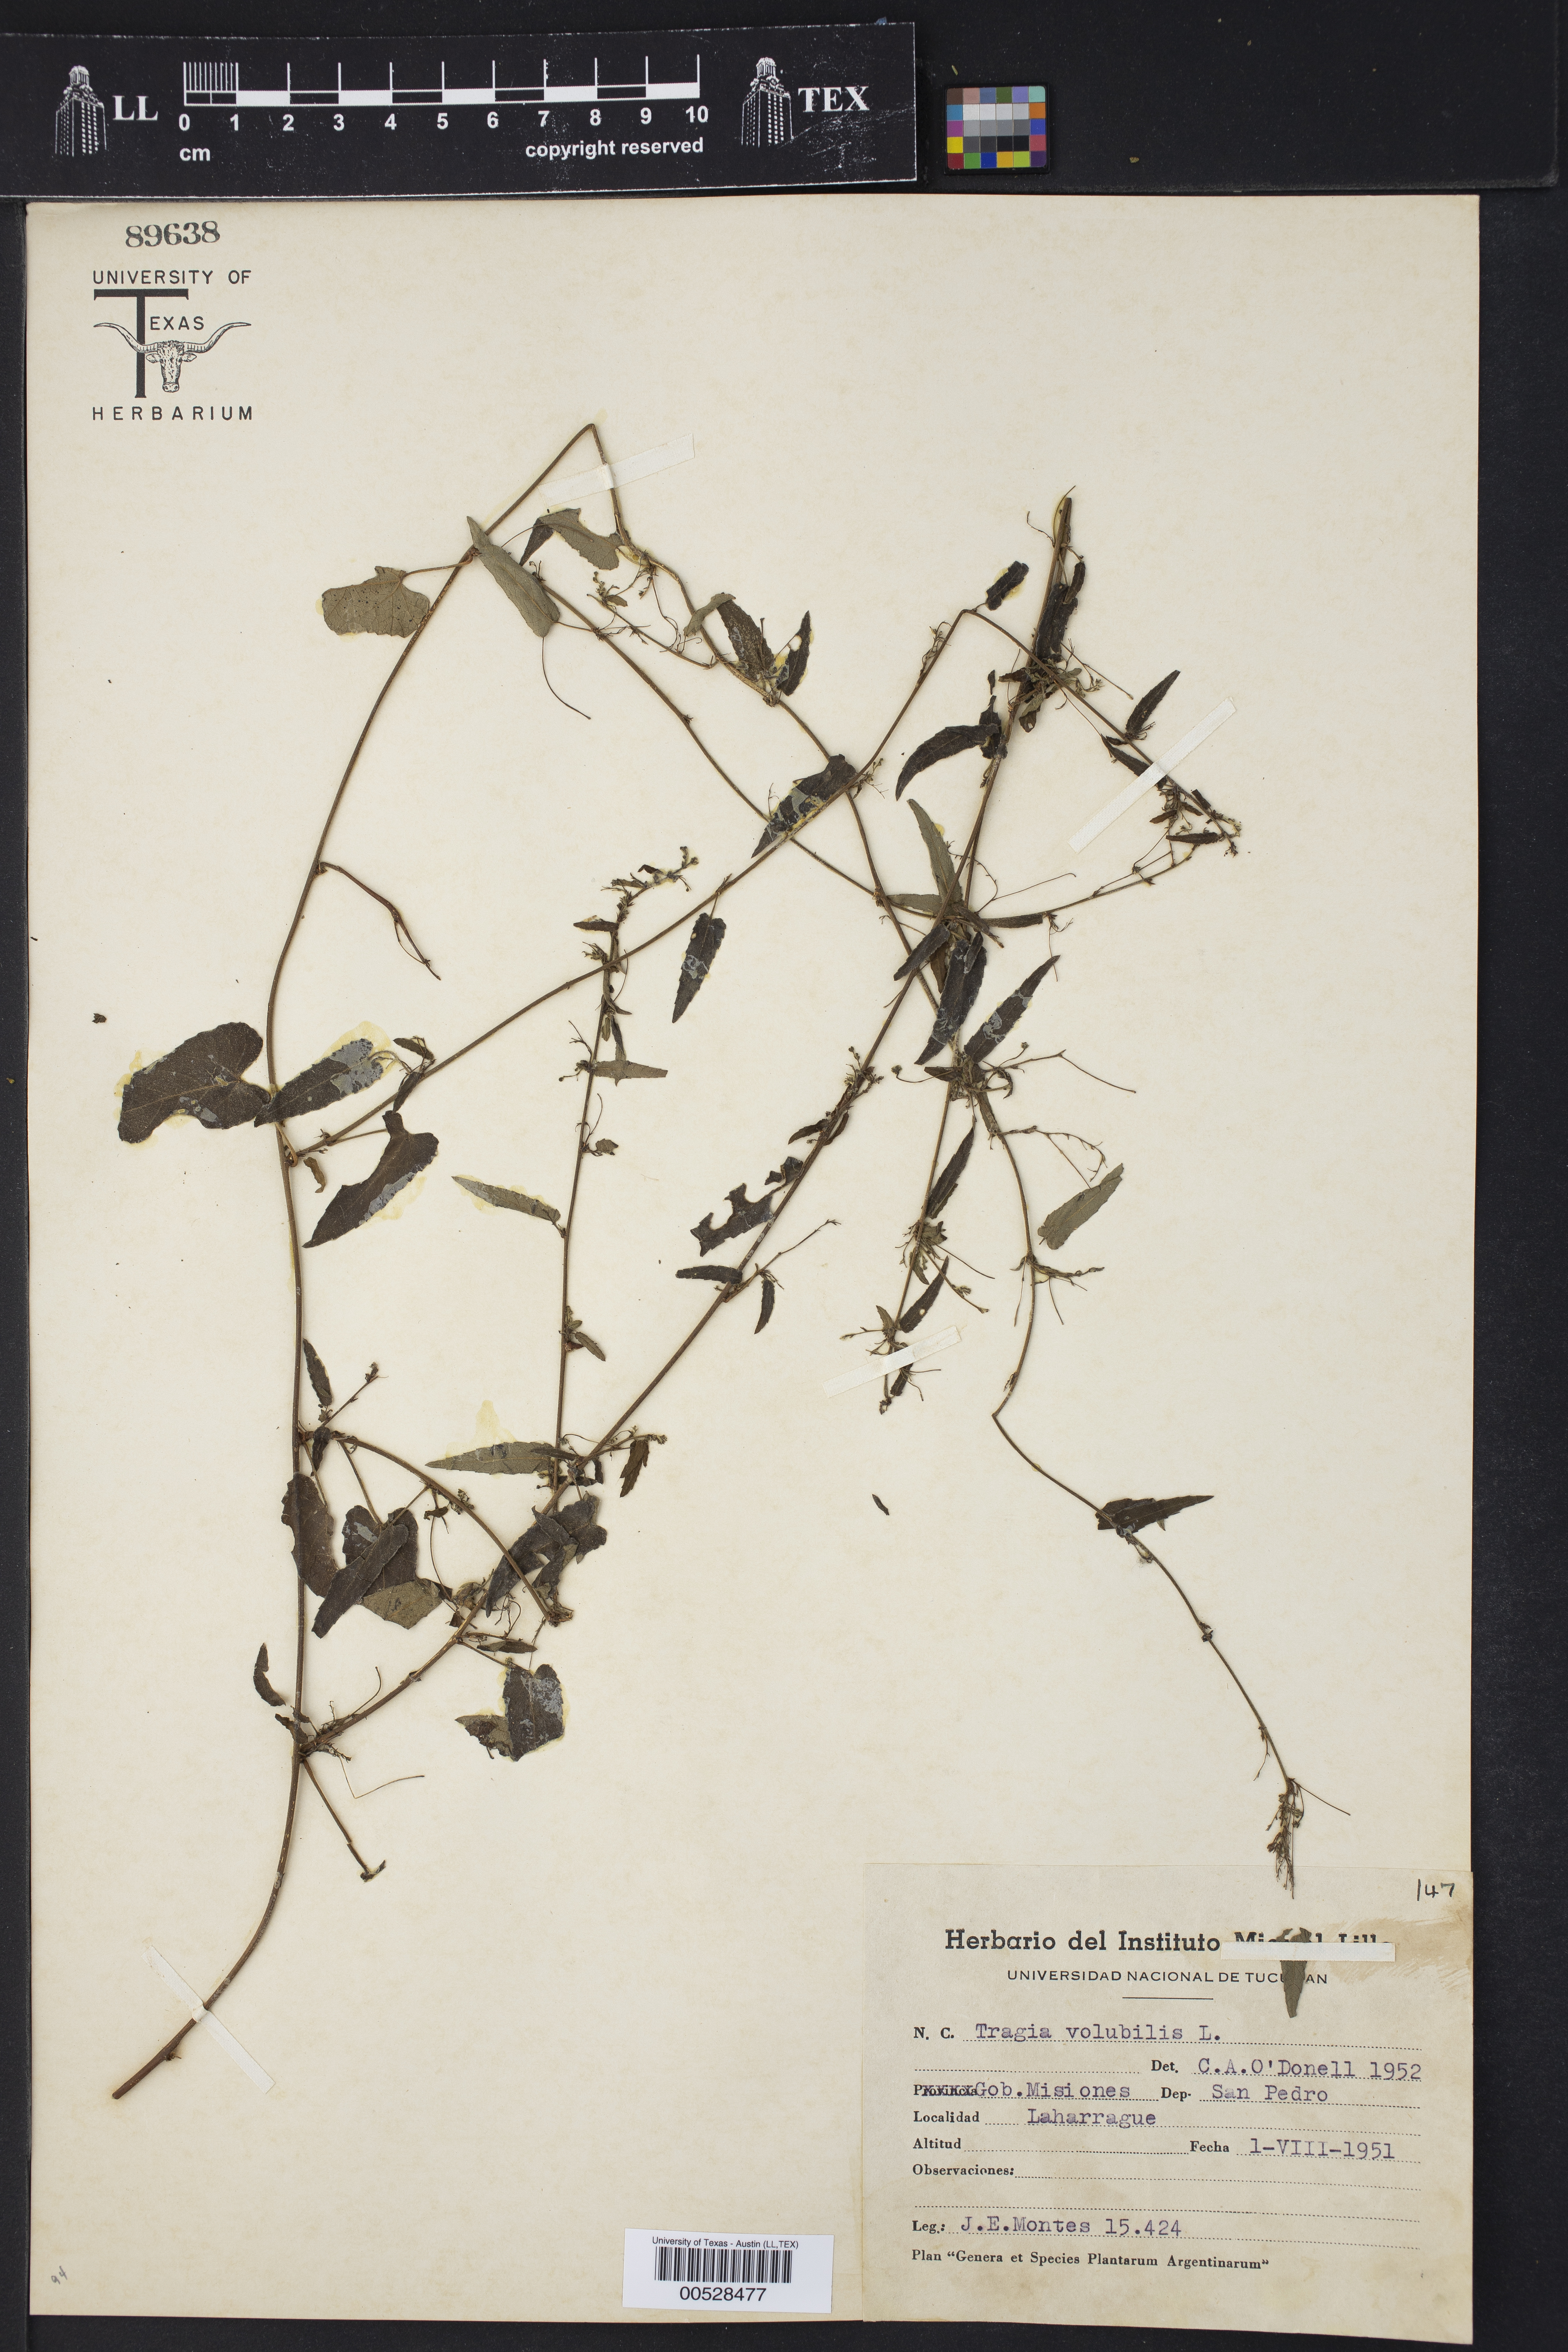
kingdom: Plantae
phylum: Tracheophyta
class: Magnoliopsida
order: Malpighiales
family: Euphorbiaceae
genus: Tragia
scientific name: Tragia volubilis
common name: Twining cow-itch
